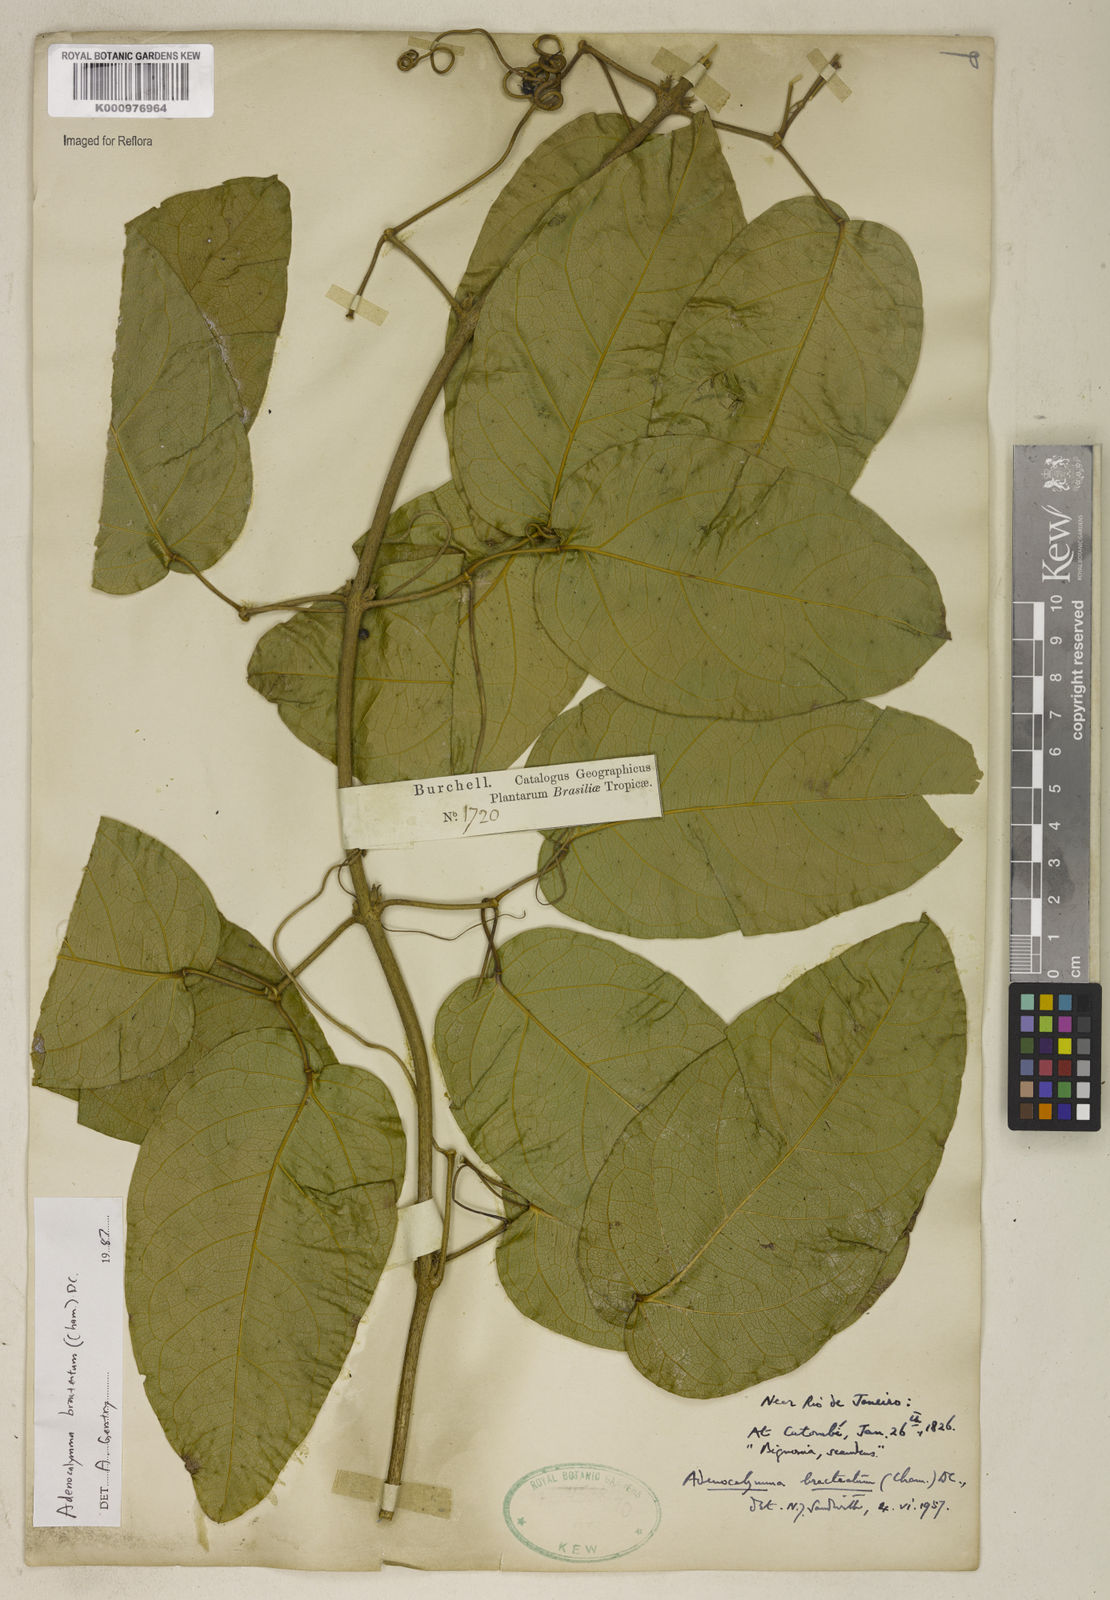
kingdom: Plantae
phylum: Tracheophyta
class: Magnoliopsida
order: Lamiales
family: Bignoniaceae
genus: Adenocalymma
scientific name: Adenocalymma bracteatum
